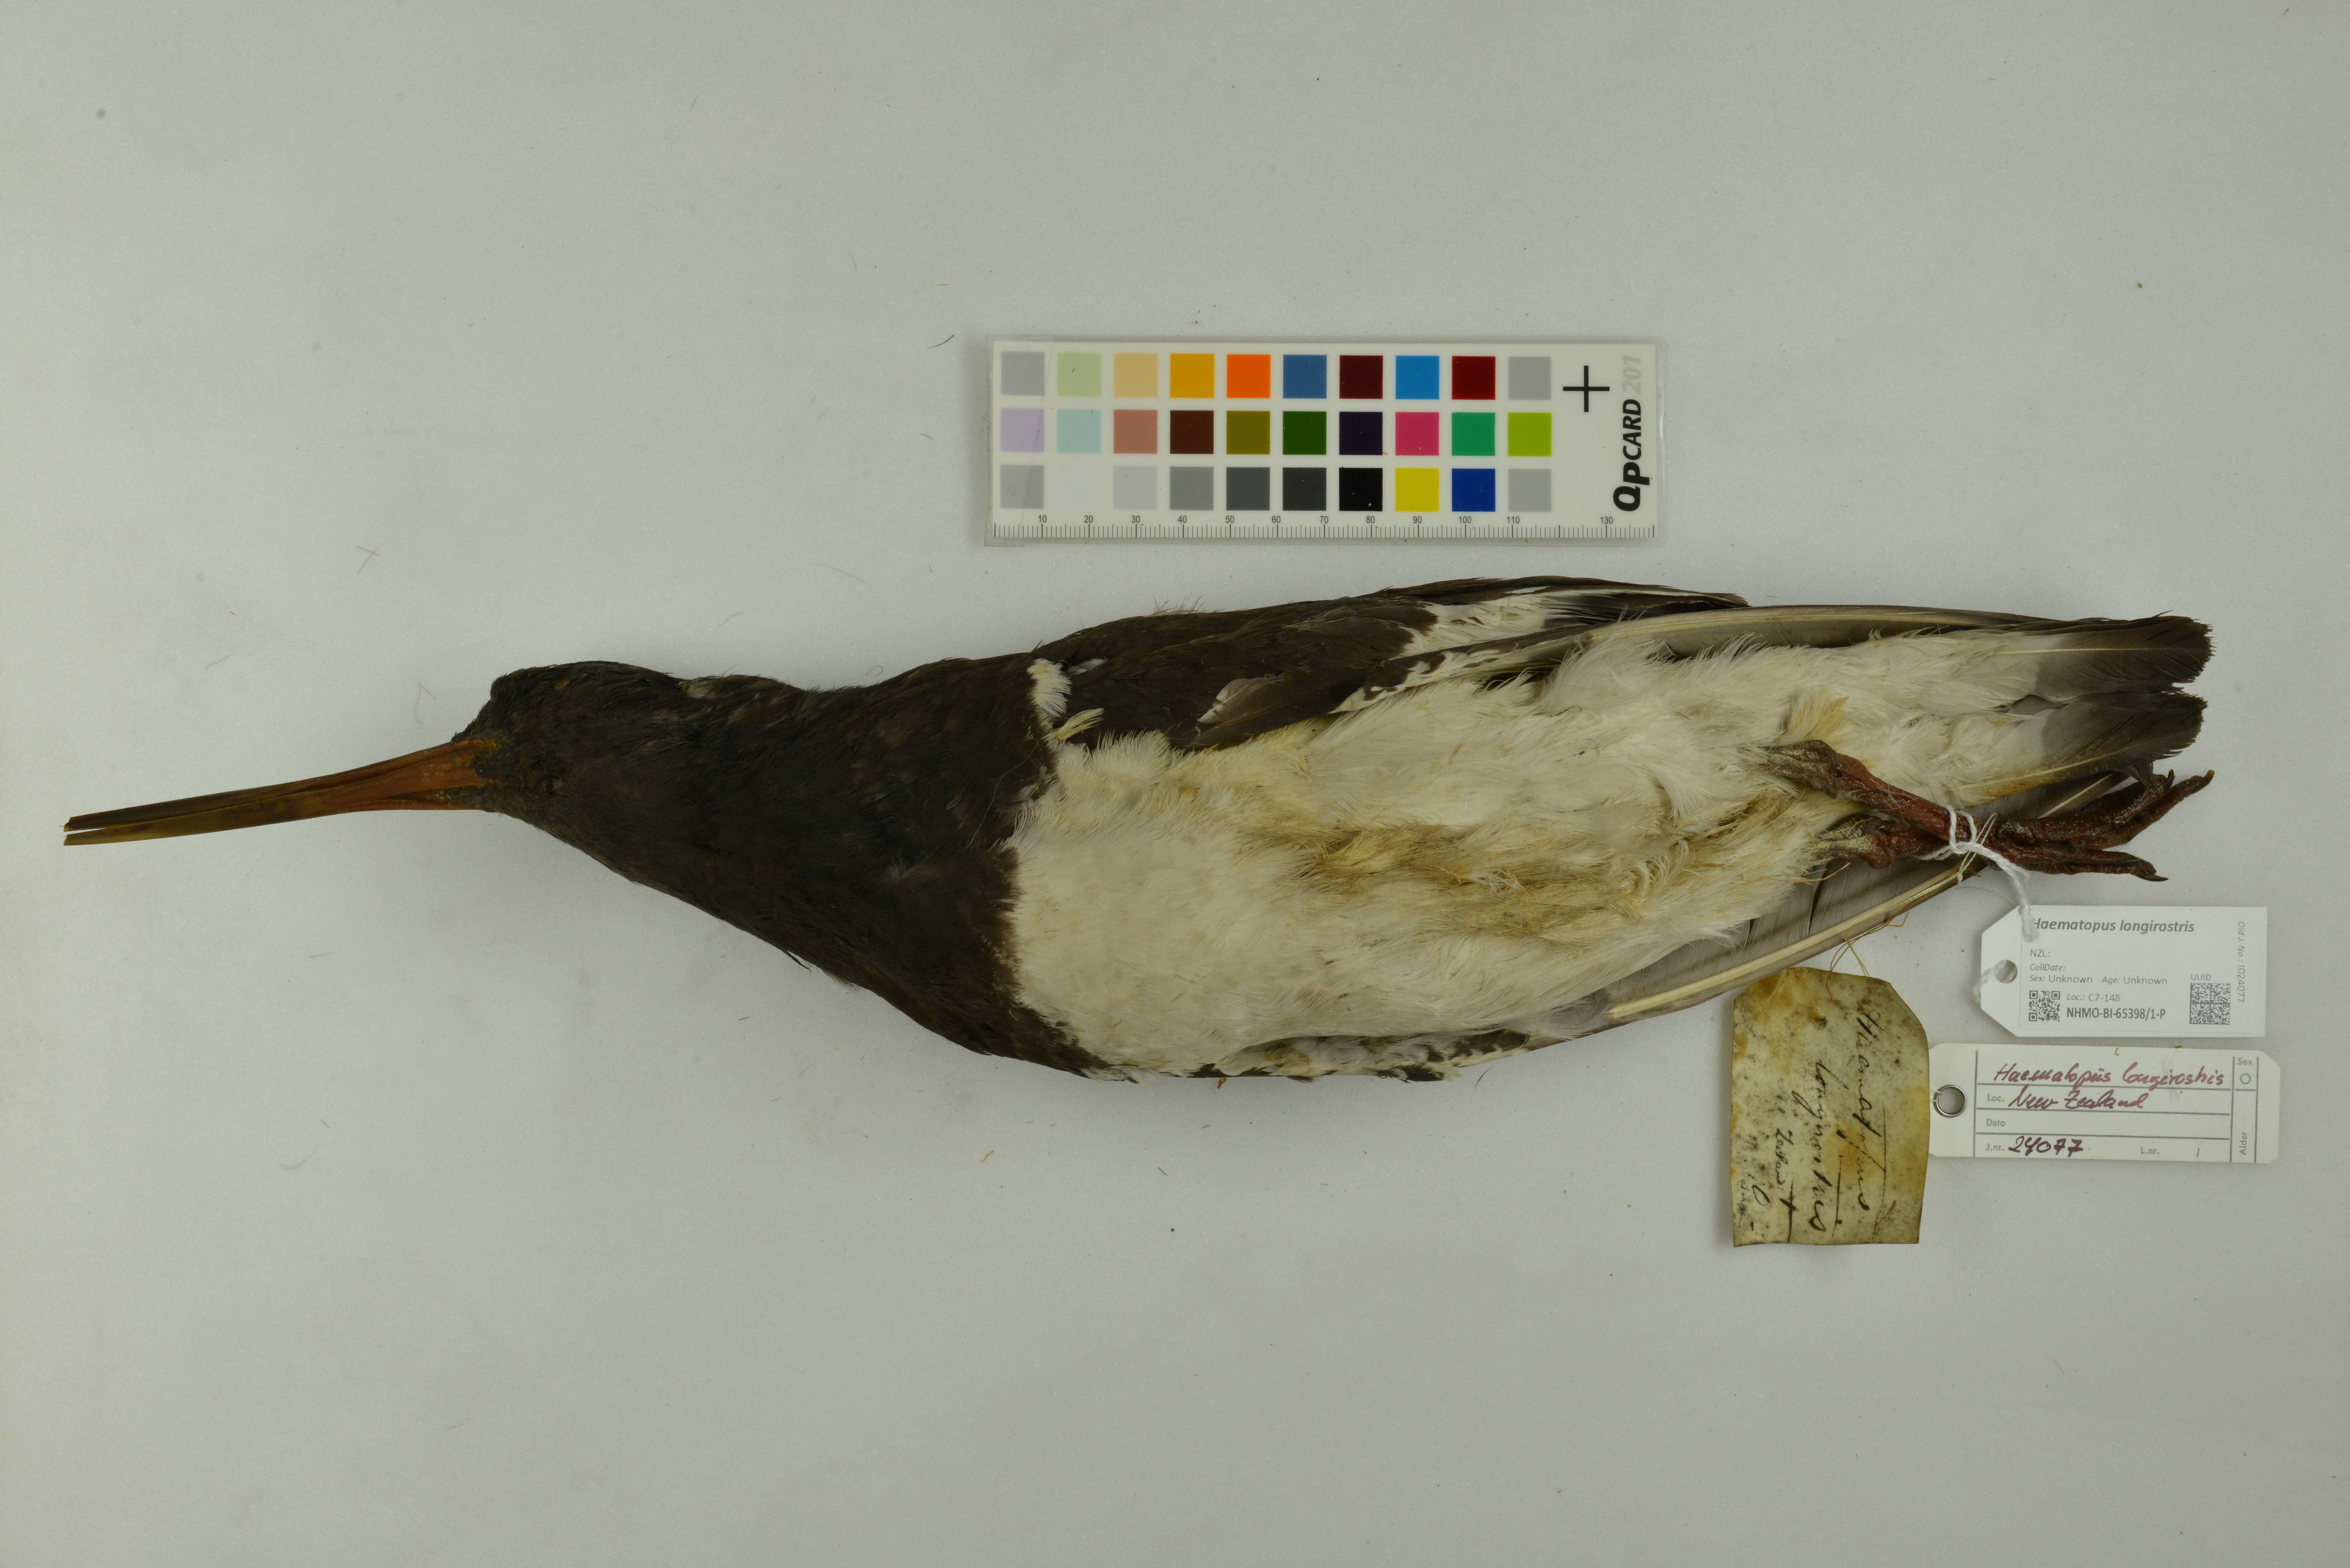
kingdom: Animalia
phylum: Chordata
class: Aves
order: Charadriiformes
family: Haematopodidae
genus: Haematopus
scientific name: Haematopus longirostris
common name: Pied oystercatcher
